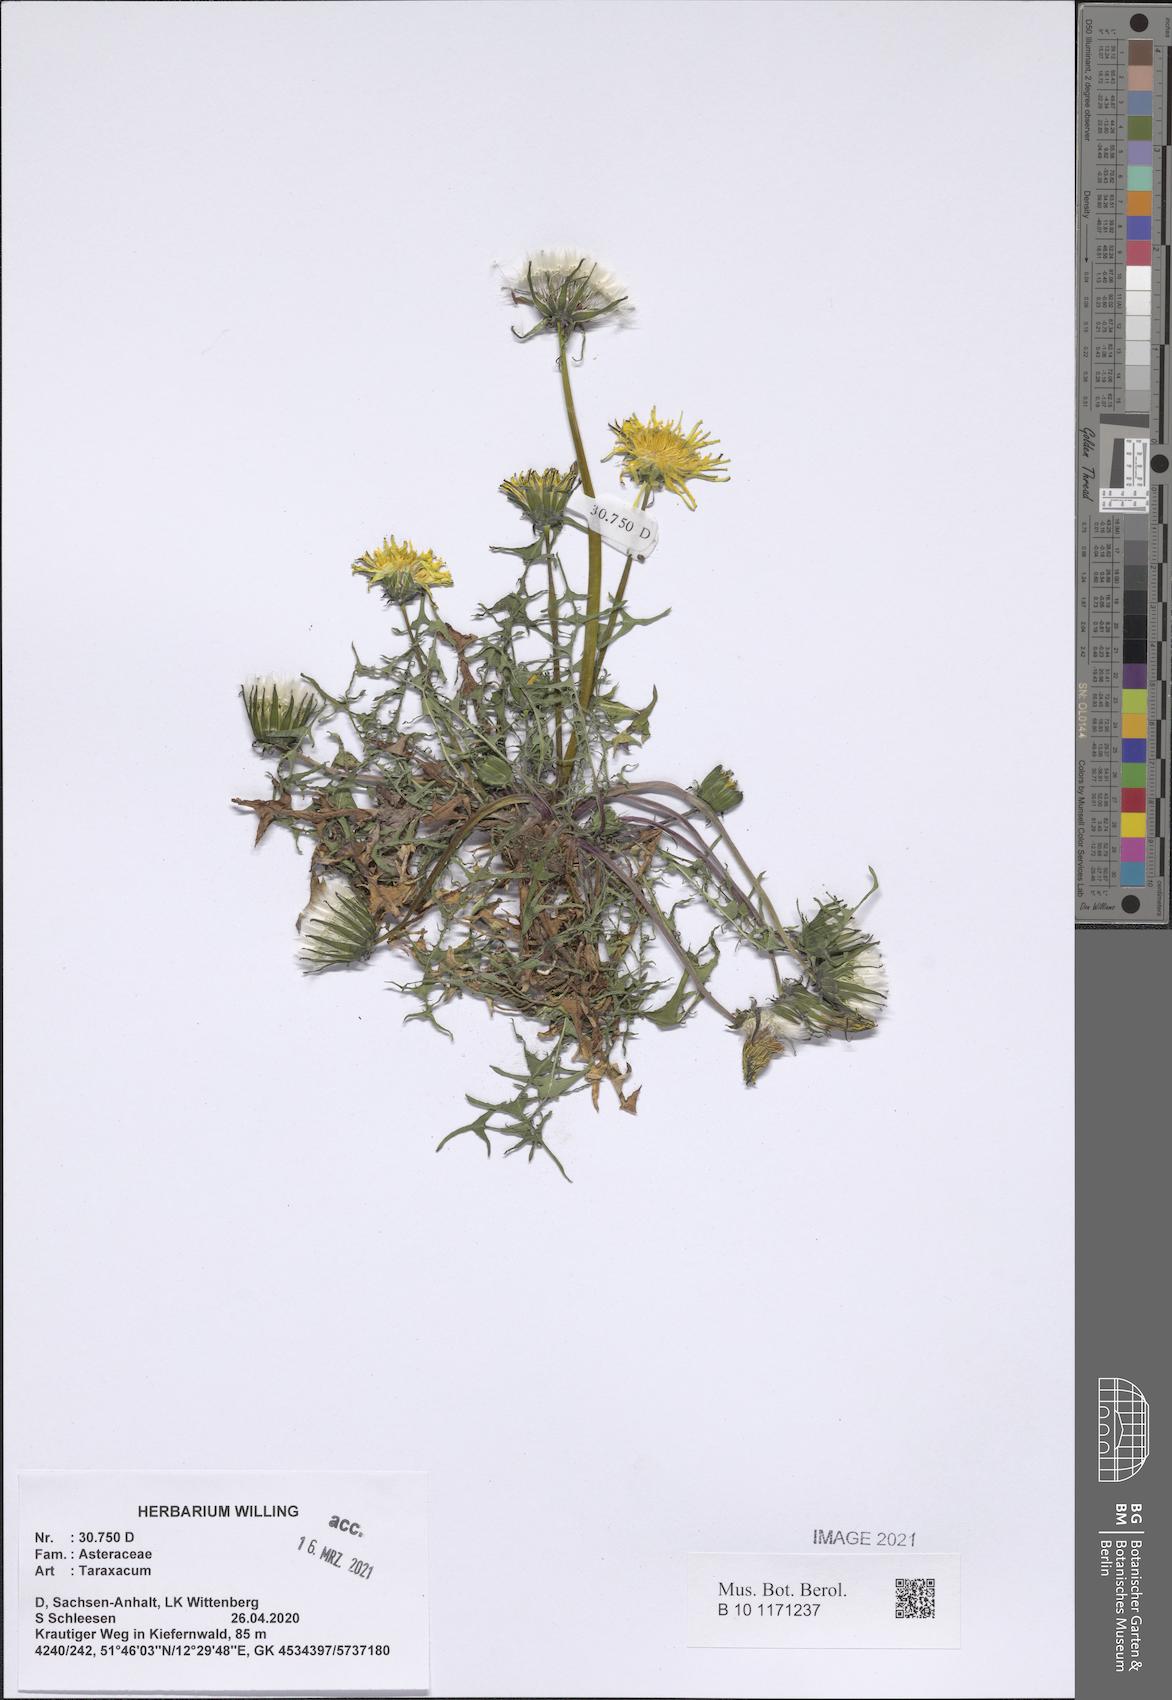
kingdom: Plantae
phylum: Tracheophyta
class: Magnoliopsida
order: Asterales
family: Asteraceae
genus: Taraxacum
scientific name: Taraxacum
